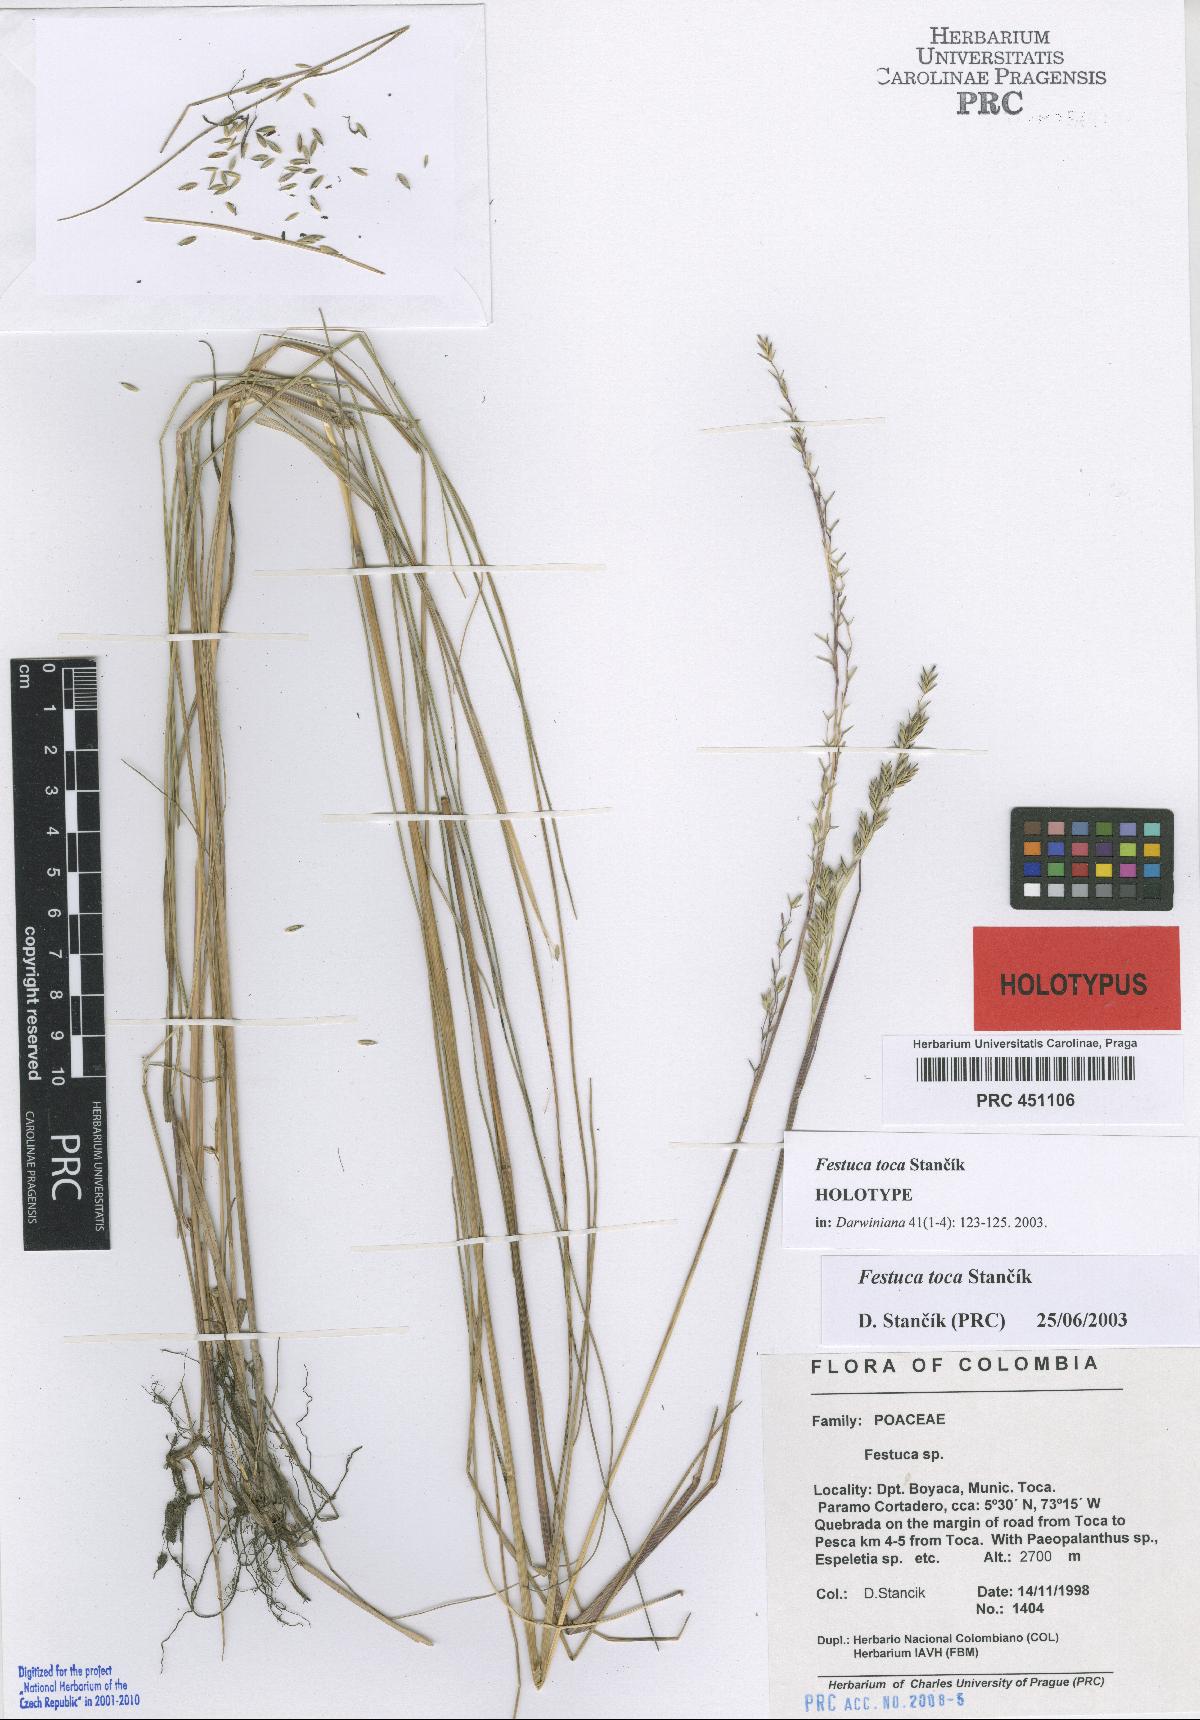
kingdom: Plantae
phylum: Tracheophyta
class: Liliopsida
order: Poales
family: Poaceae
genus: Festuca
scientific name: Festuca toca
